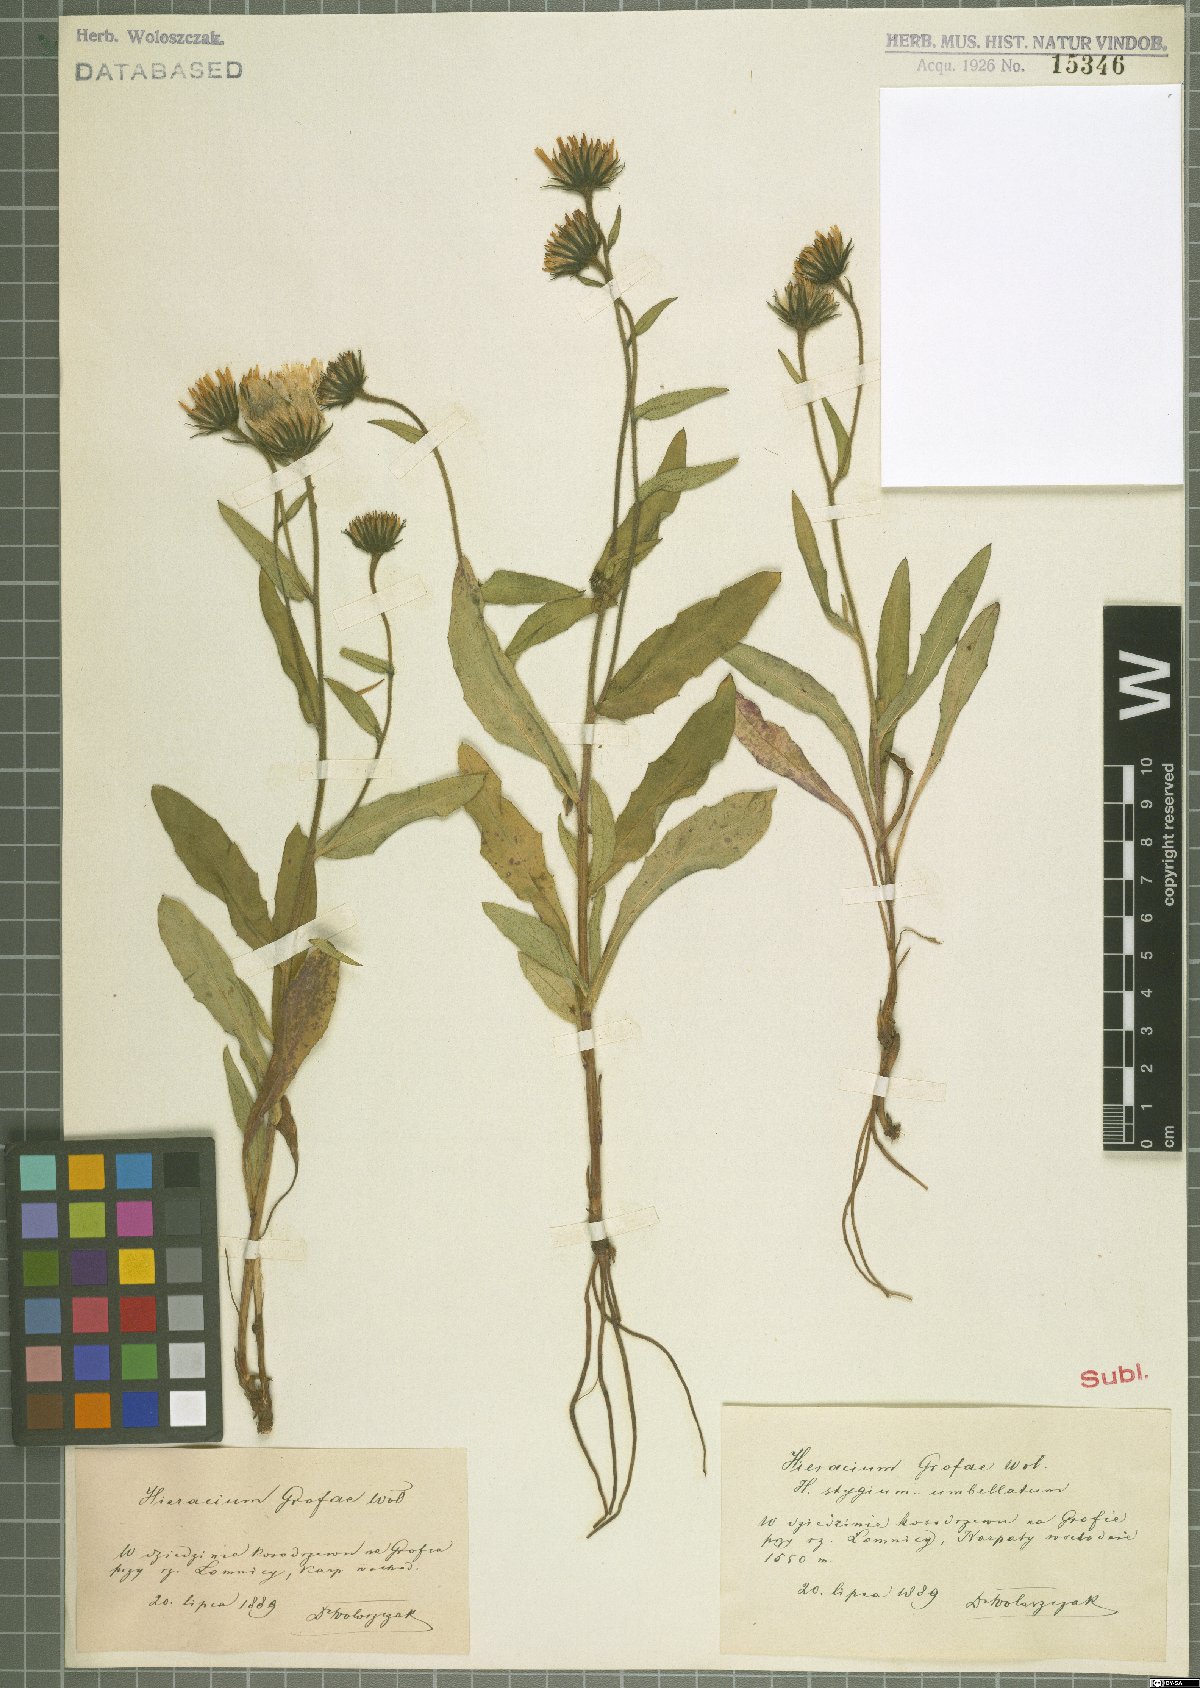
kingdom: Plantae
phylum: Tracheophyta
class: Magnoliopsida
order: Asterales
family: Asteraceae
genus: Hieracium
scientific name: Hieracium grofae
